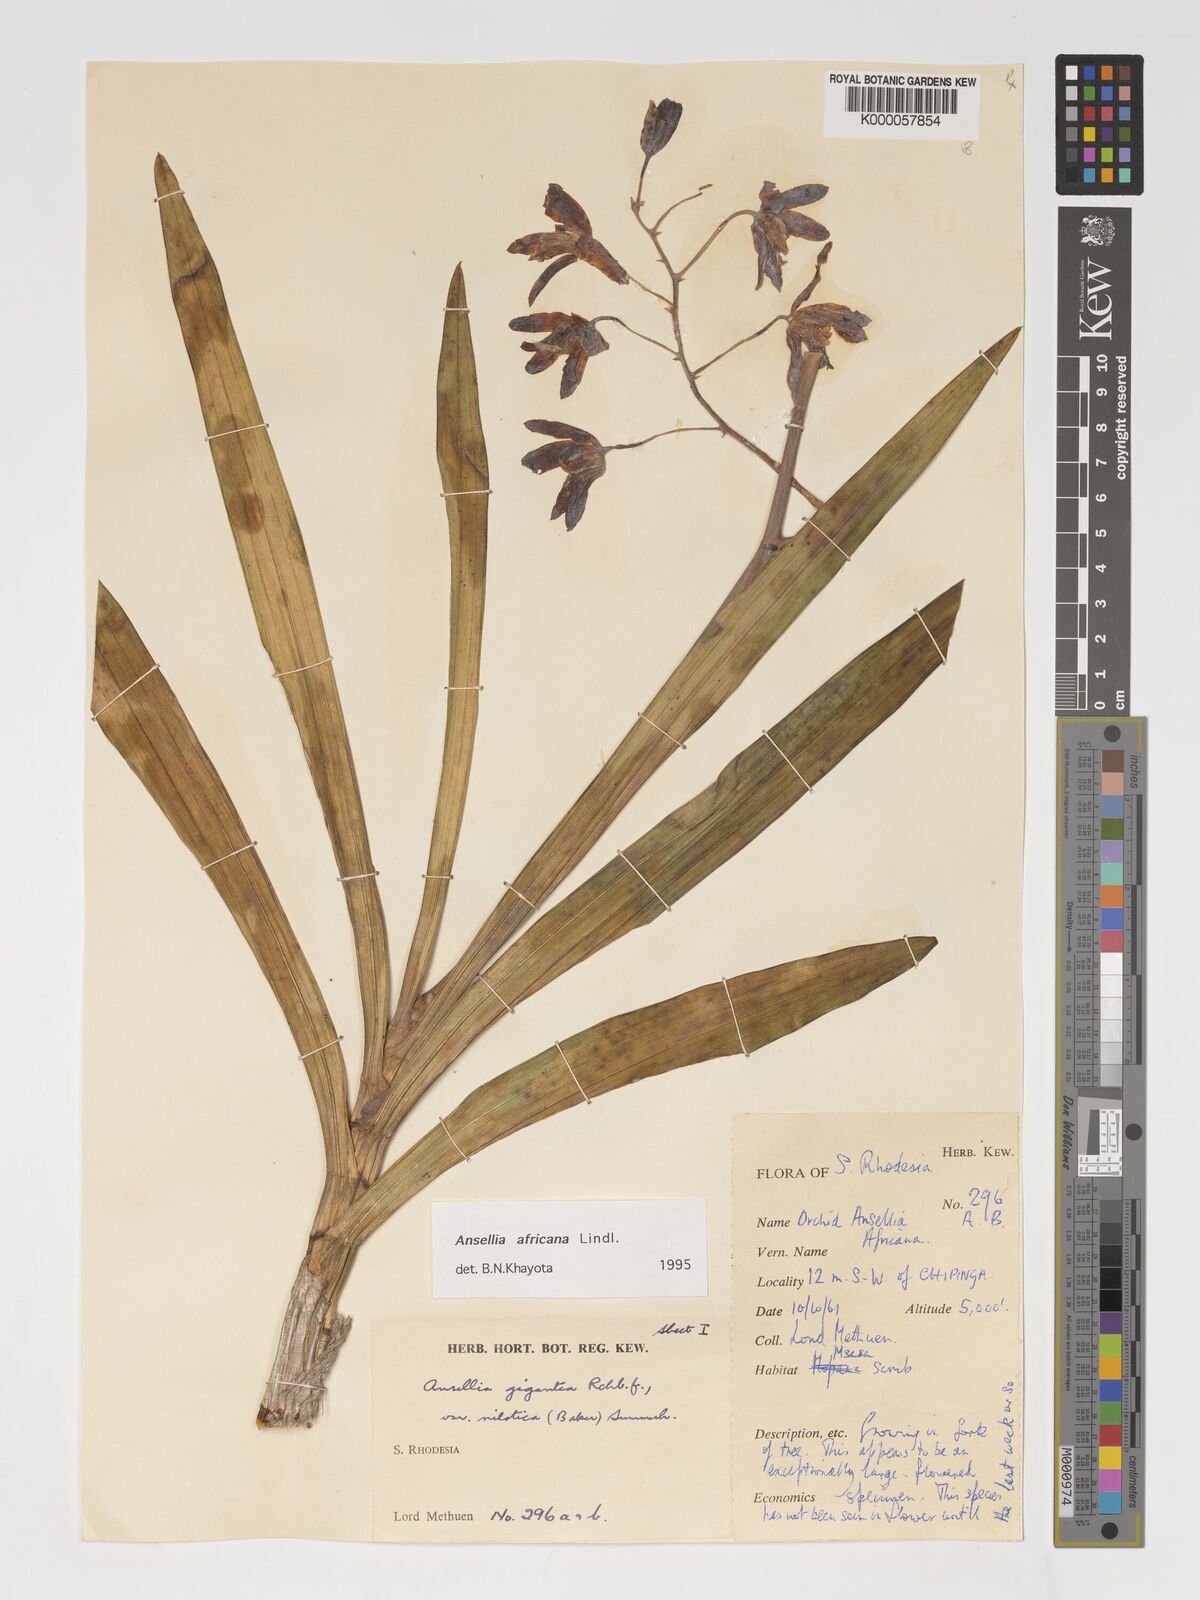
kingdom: Plantae
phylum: Tracheophyta
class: Liliopsida
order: Asparagales
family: Orchidaceae
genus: Ansellia
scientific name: Ansellia africana
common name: African ansellia
